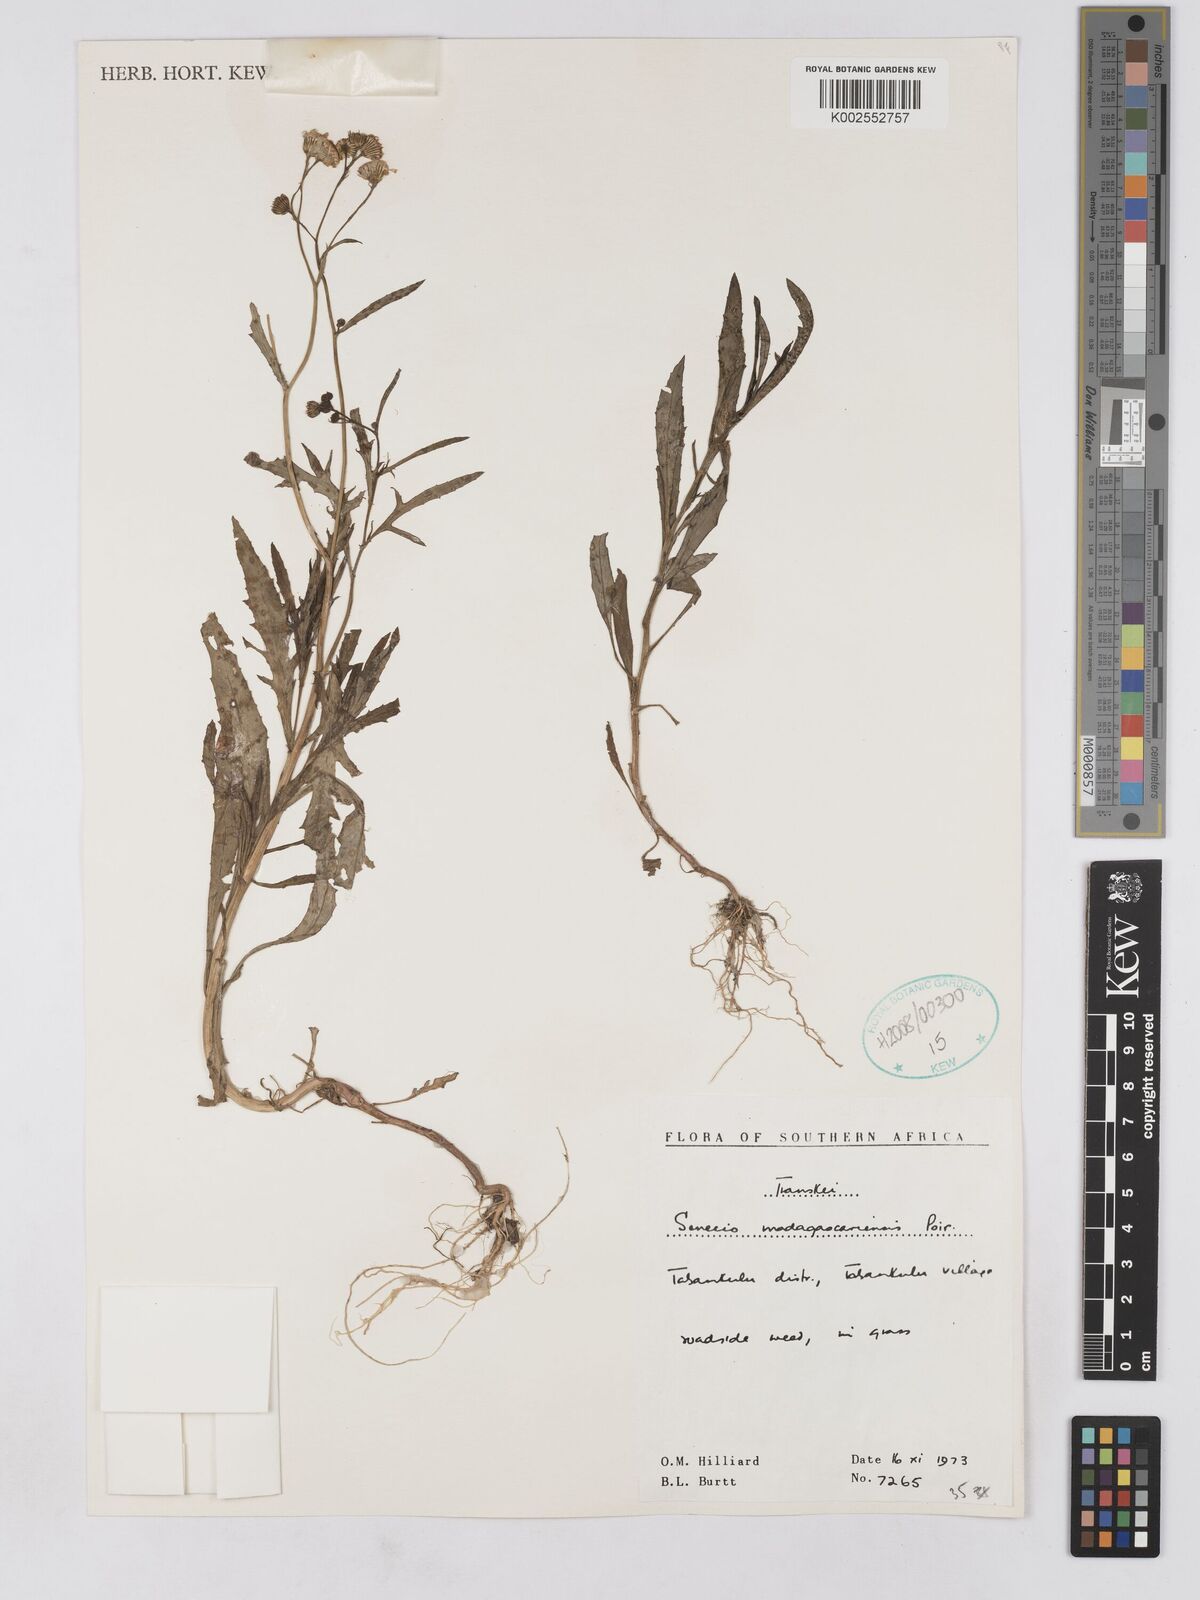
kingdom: Plantae
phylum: Tracheophyta
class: Magnoliopsida
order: Asterales
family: Asteraceae
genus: Senecio
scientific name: Senecio madagascariensis
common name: Madagascar ragwort
